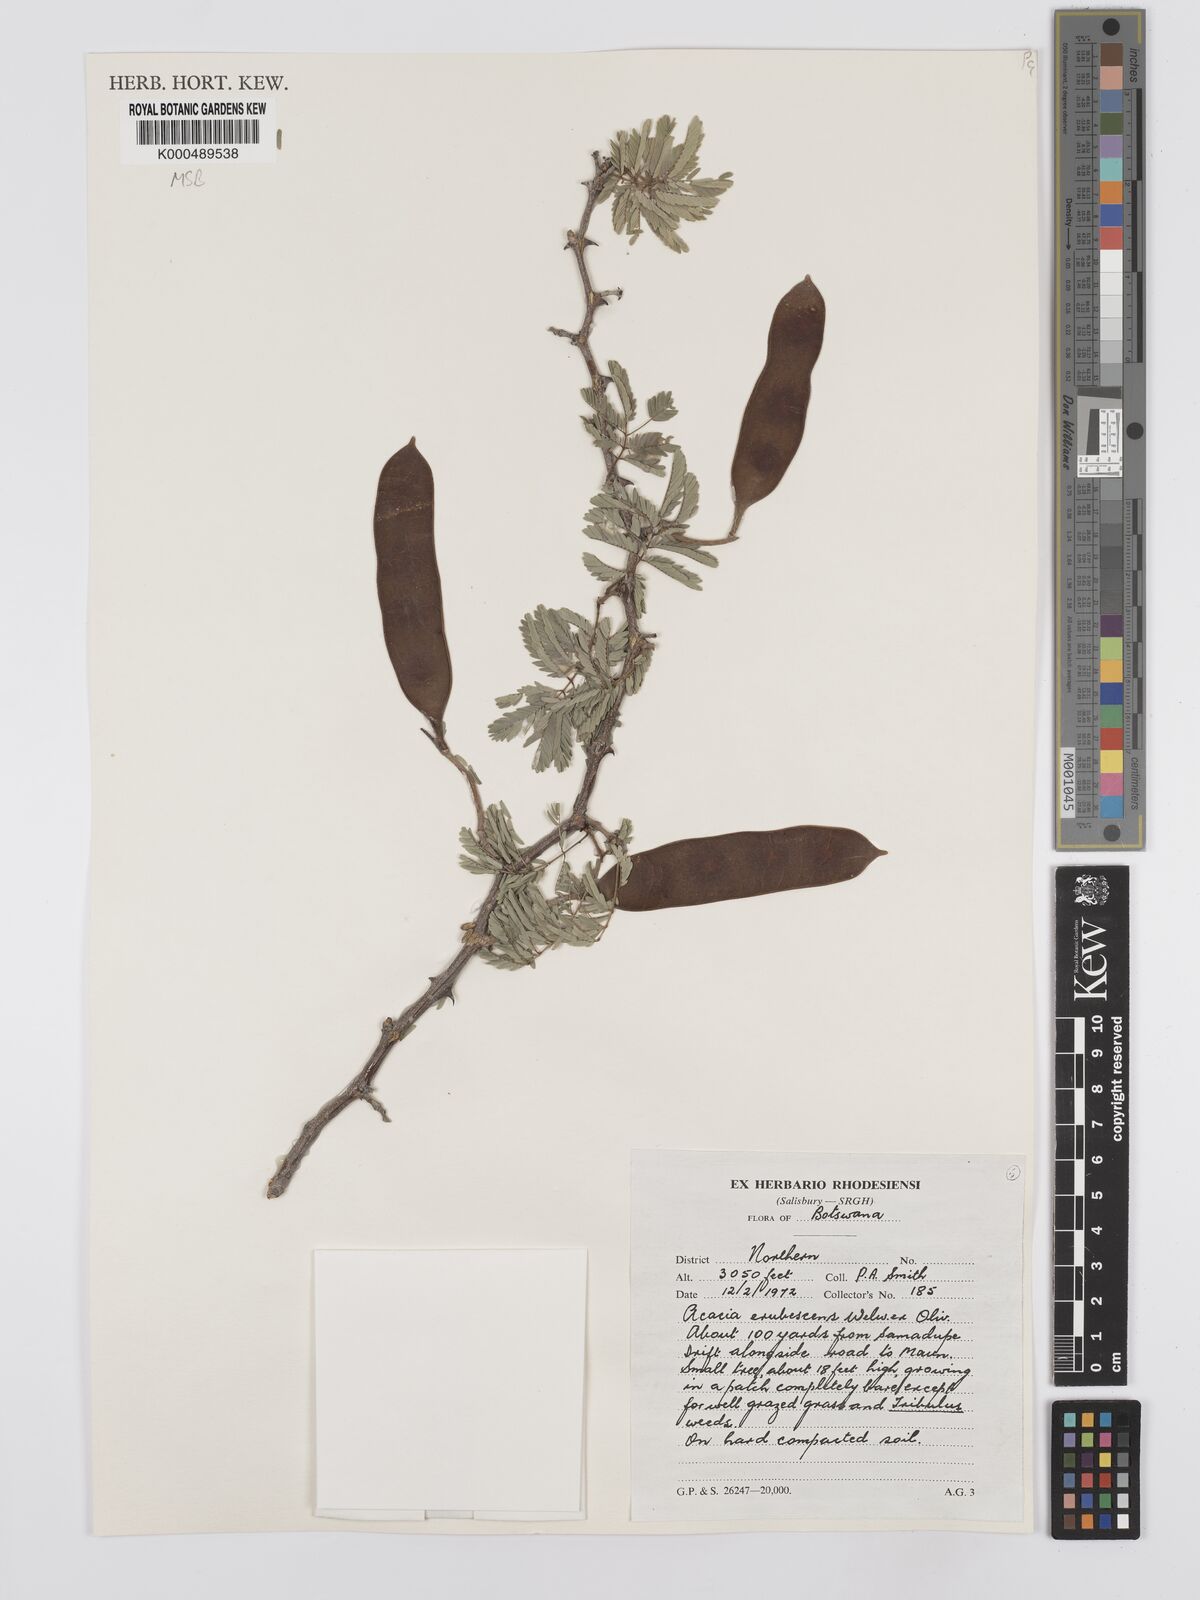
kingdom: Plantae
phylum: Tracheophyta
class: Magnoliopsida
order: Fabales
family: Fabaceae
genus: Senegalia
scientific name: Senegalia erubescens
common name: Bluethorn
